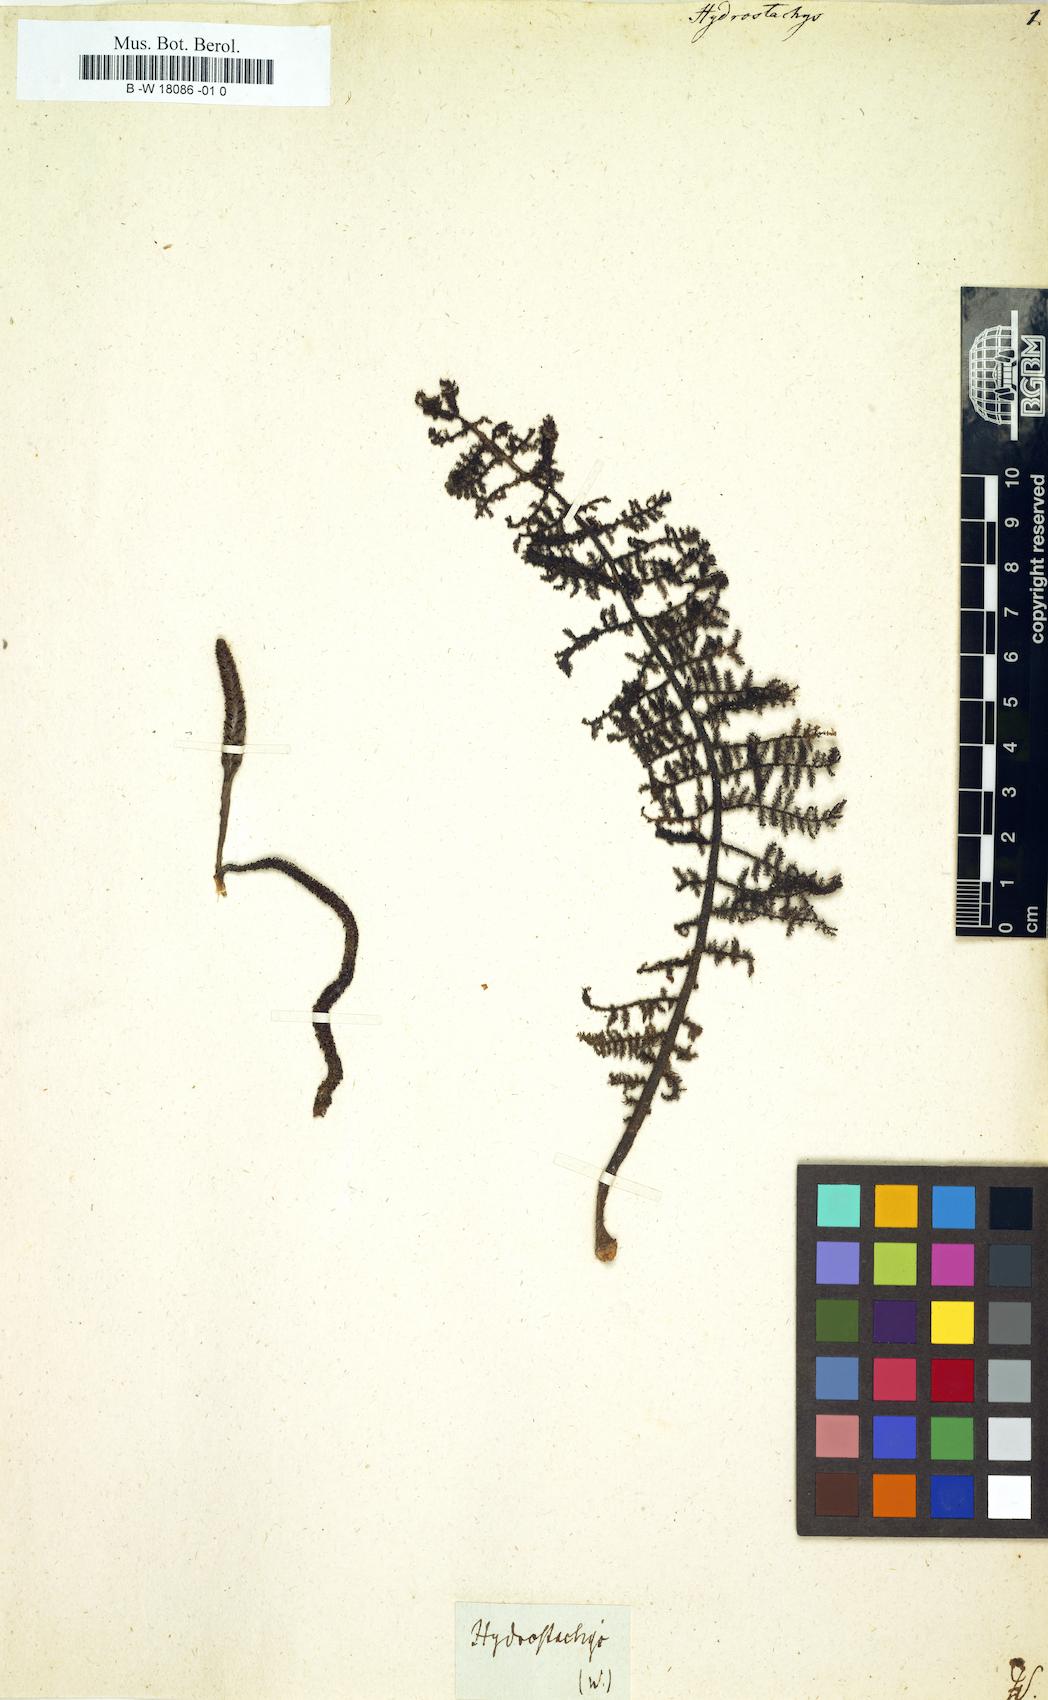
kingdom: Plantae
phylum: Tracheophyta
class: Magnoliopsida
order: Cornales
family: Hydrostachyaceae
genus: Hydrostachys
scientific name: Hydrostachys
